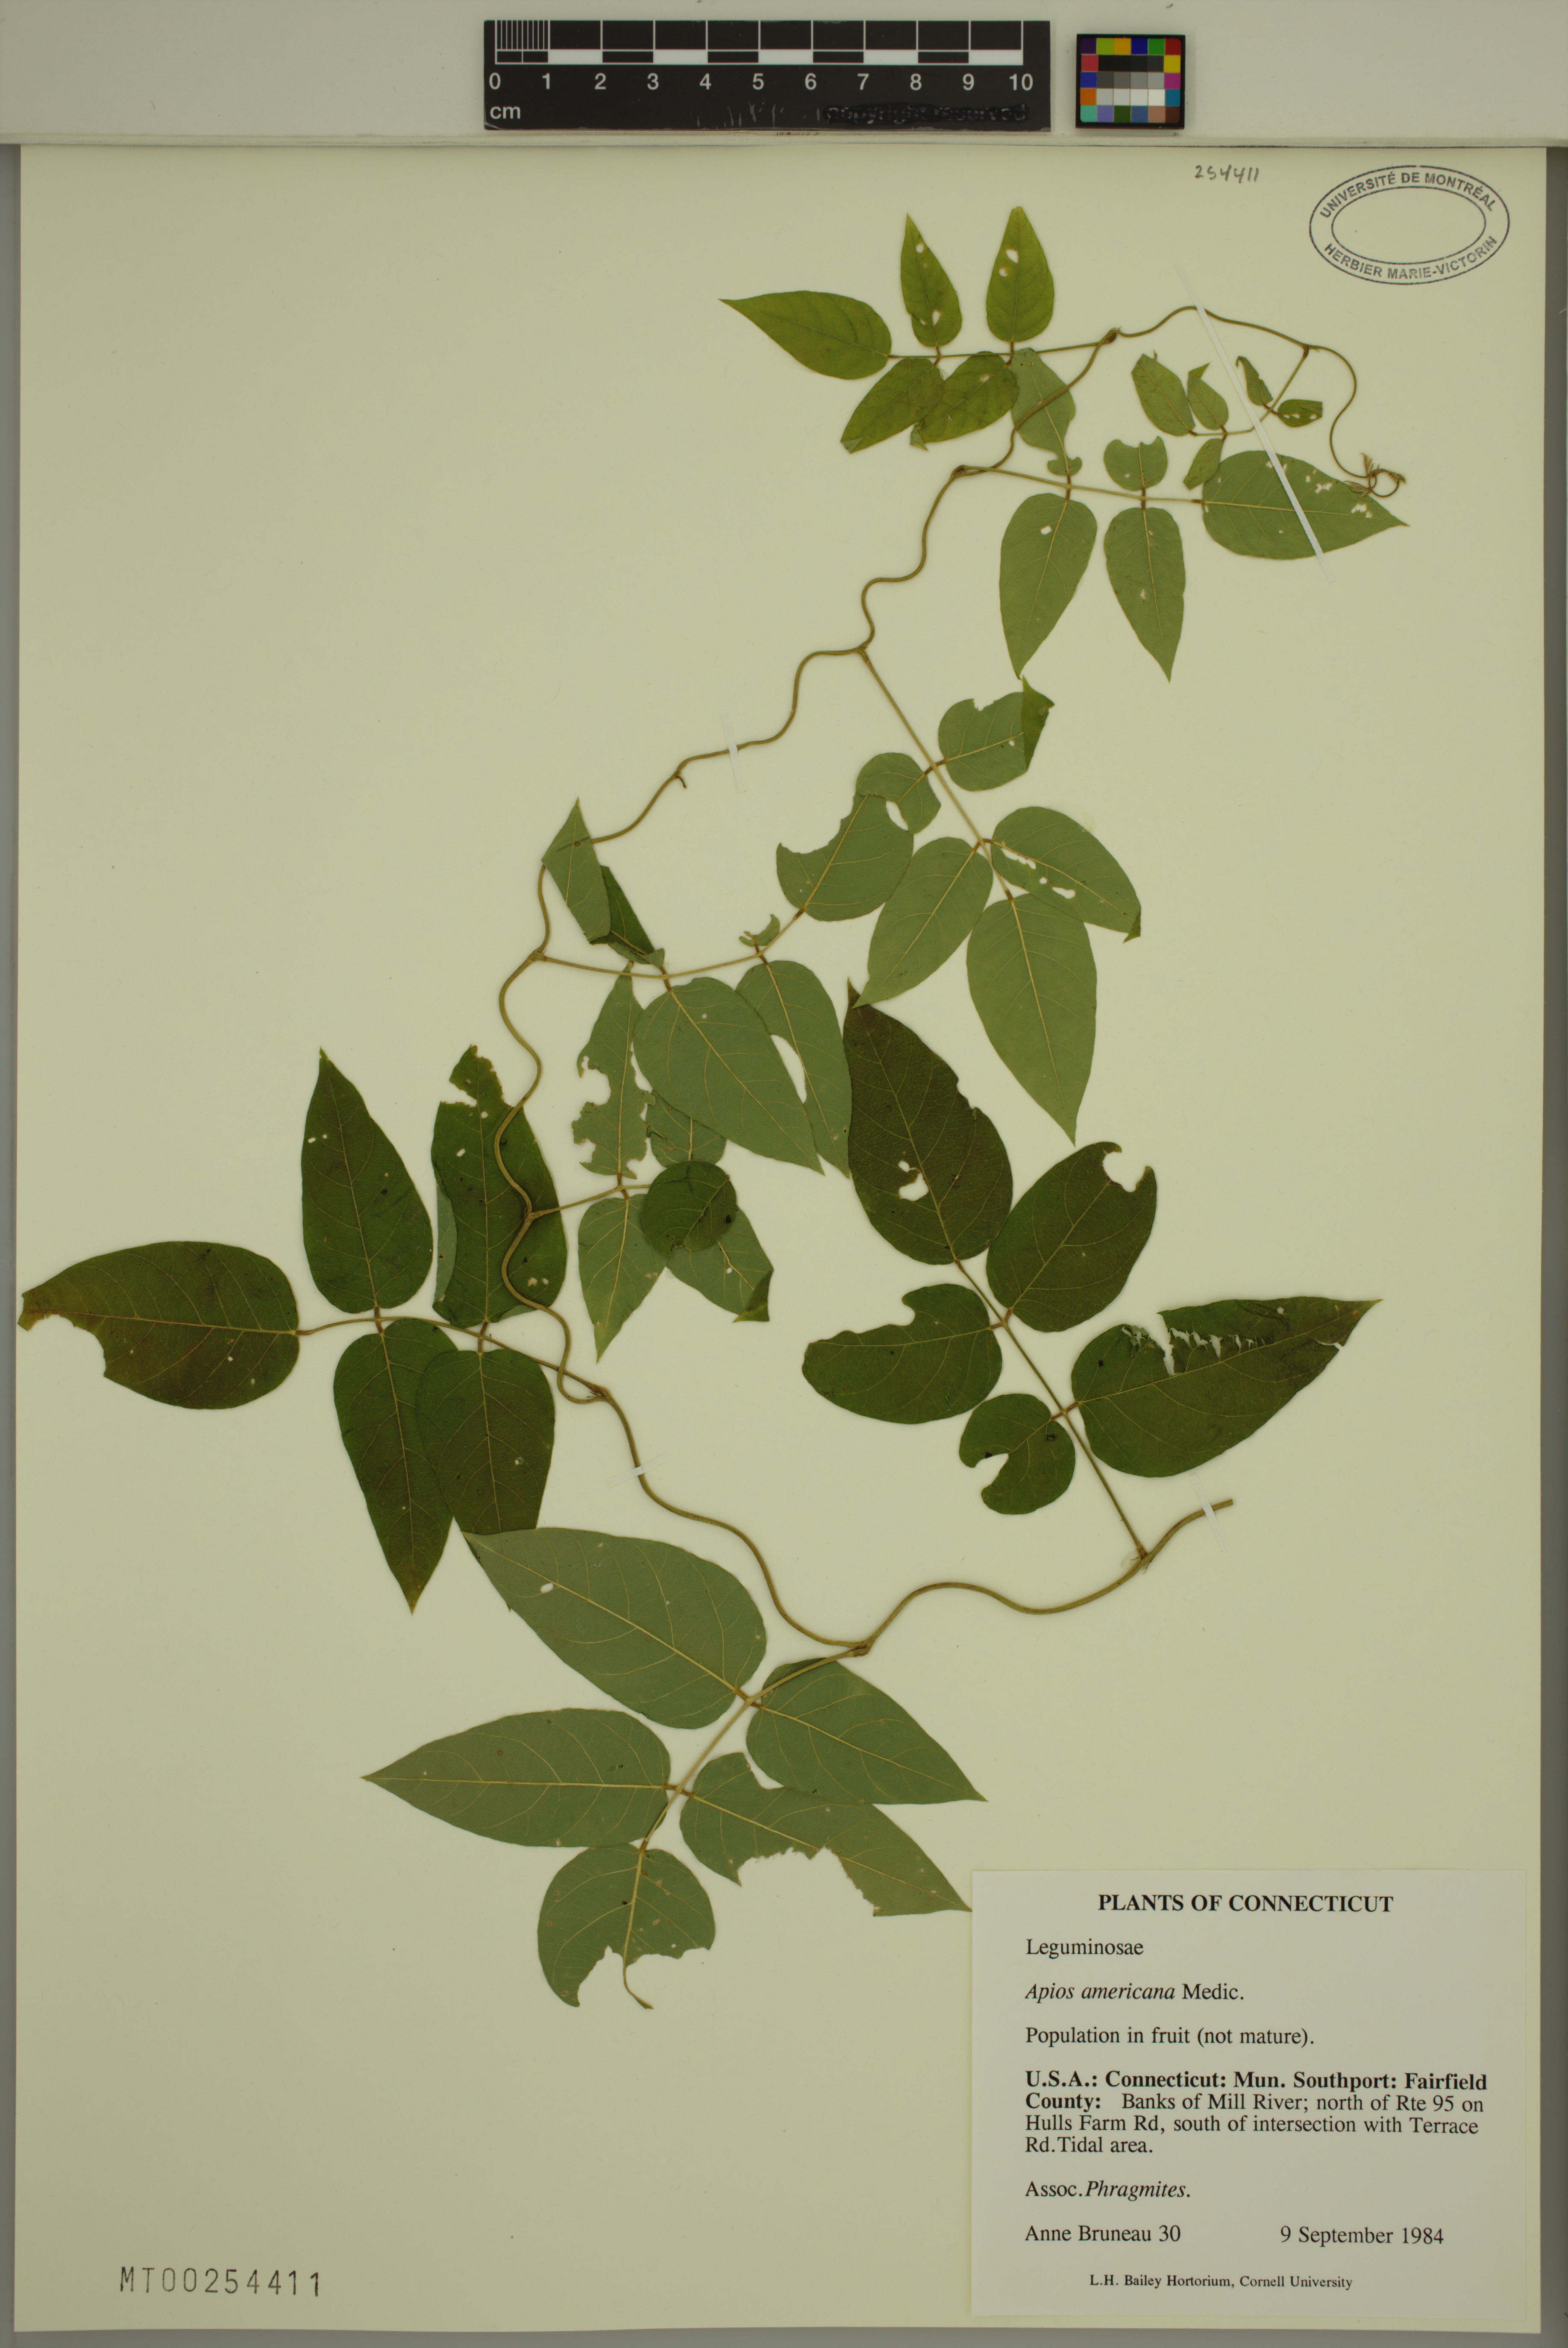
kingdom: Plantae
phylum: Tracheophyta
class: Magnoliopsida
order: Fabales
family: Fabaceae
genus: Apios
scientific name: Apios americana
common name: American potato-bean
